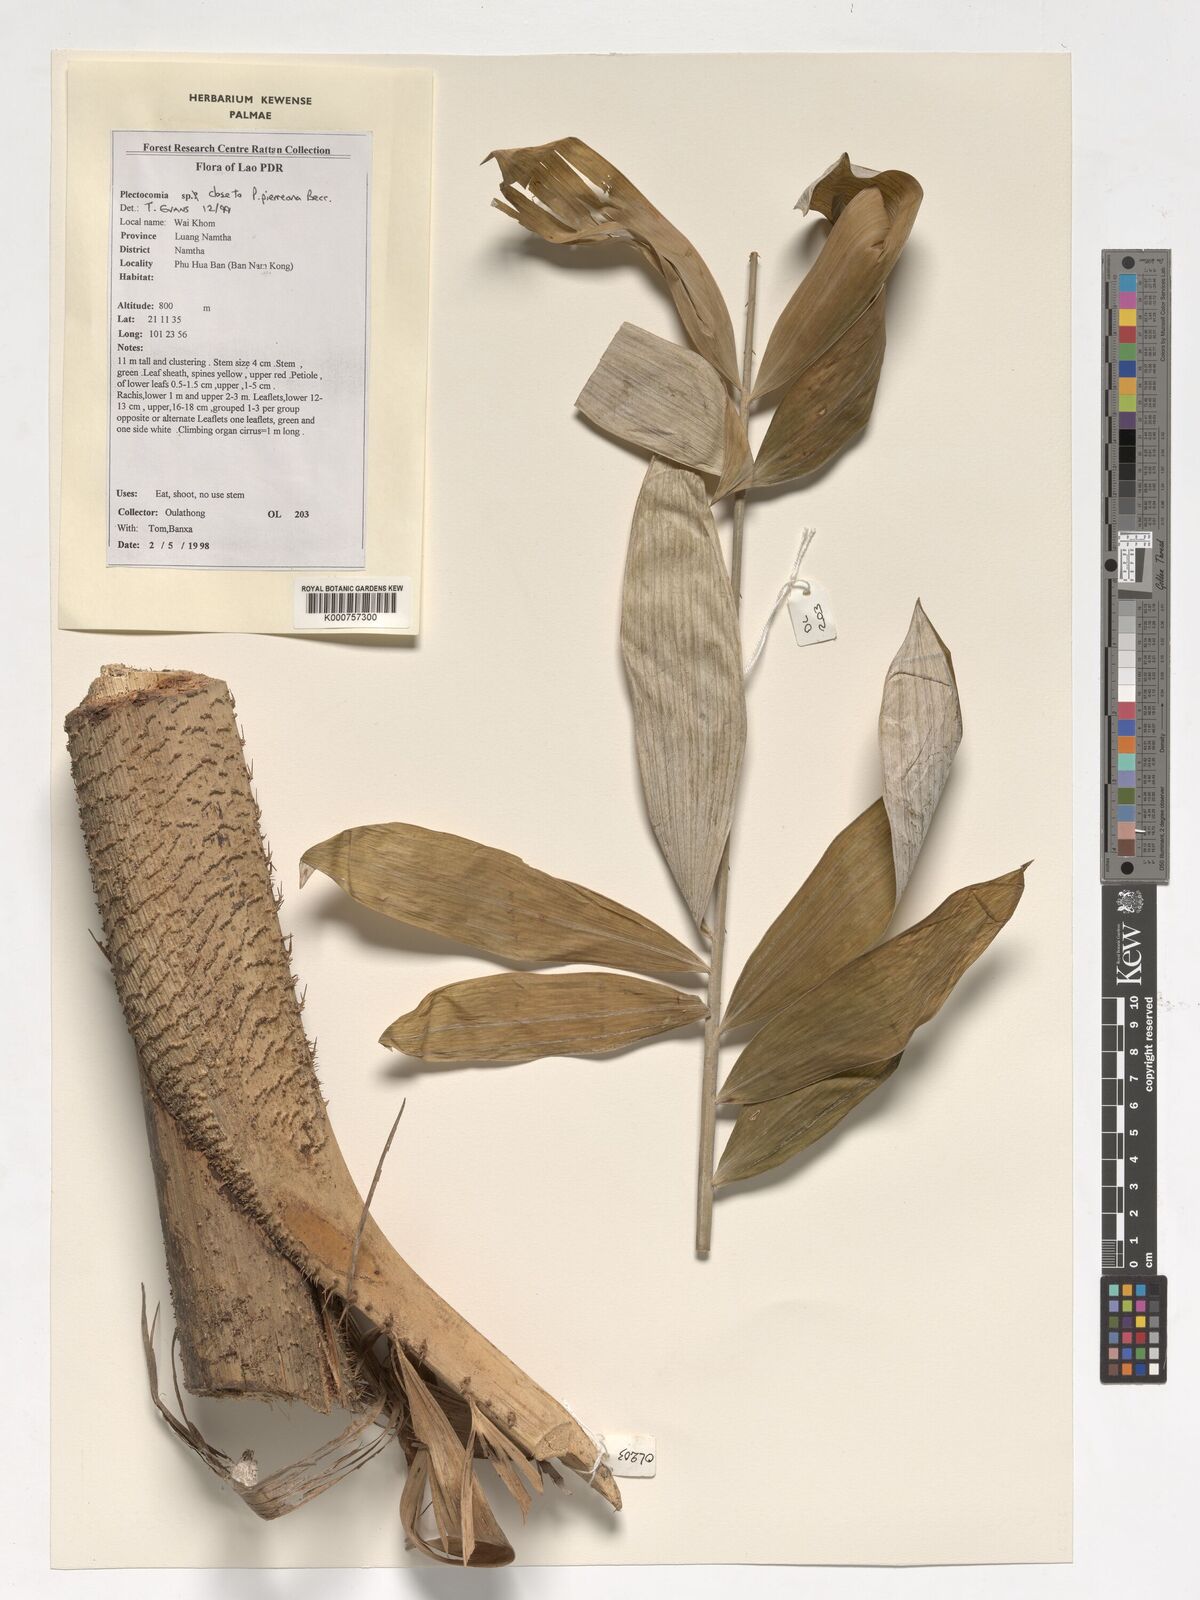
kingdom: Plantae
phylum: Tracheophyta
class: Liliopsida
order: Arecales
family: Arecaceae
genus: Plectocomia
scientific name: Plectocomia pierreana
